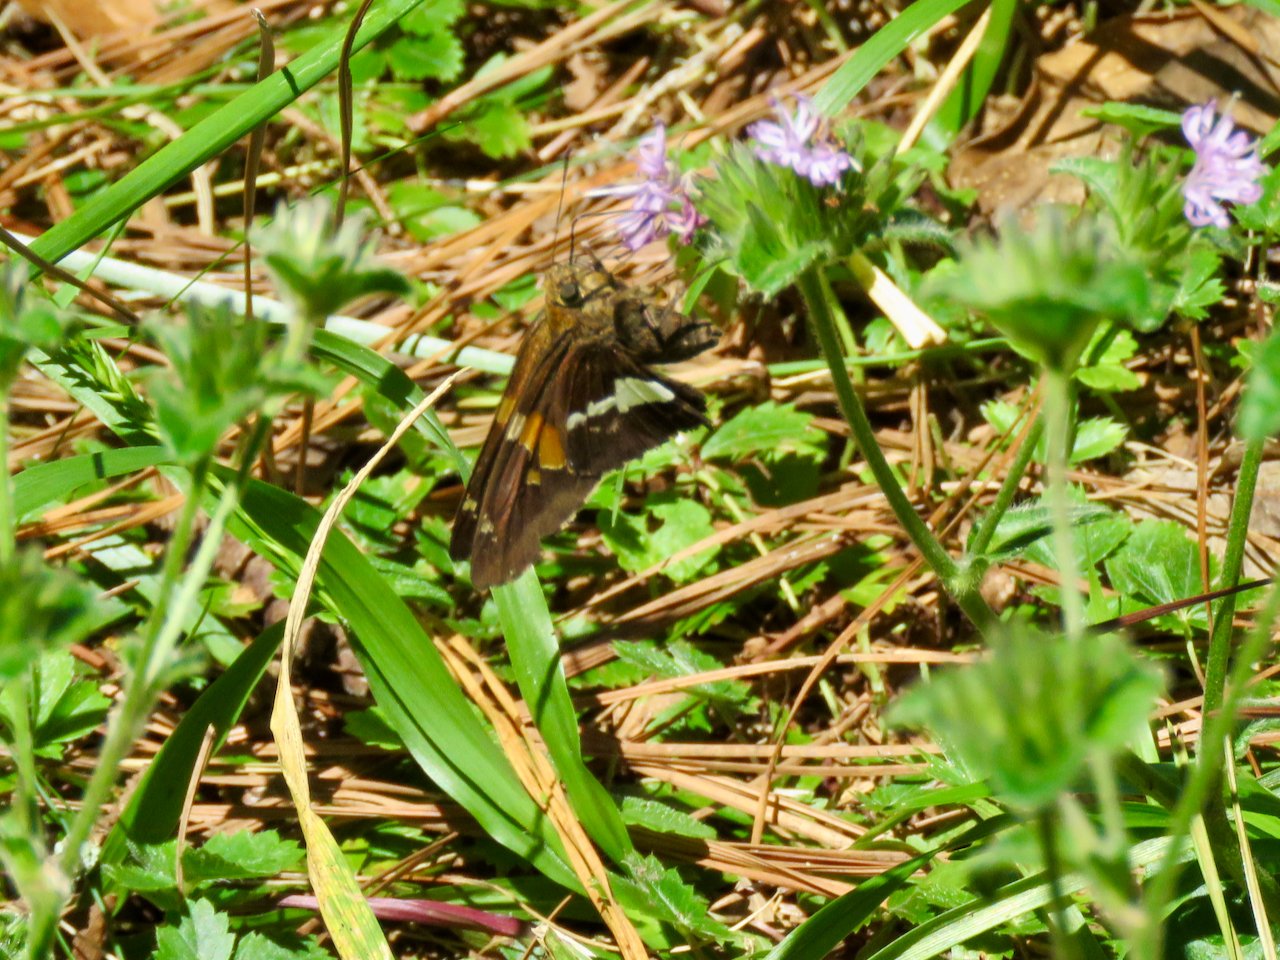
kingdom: Animalia
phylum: Arthropoda
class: Insecta
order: Lepidoptera
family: Hesperiidae
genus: Epargyreus
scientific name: Epargyreus clarus
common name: Silver-spotted Skipper
